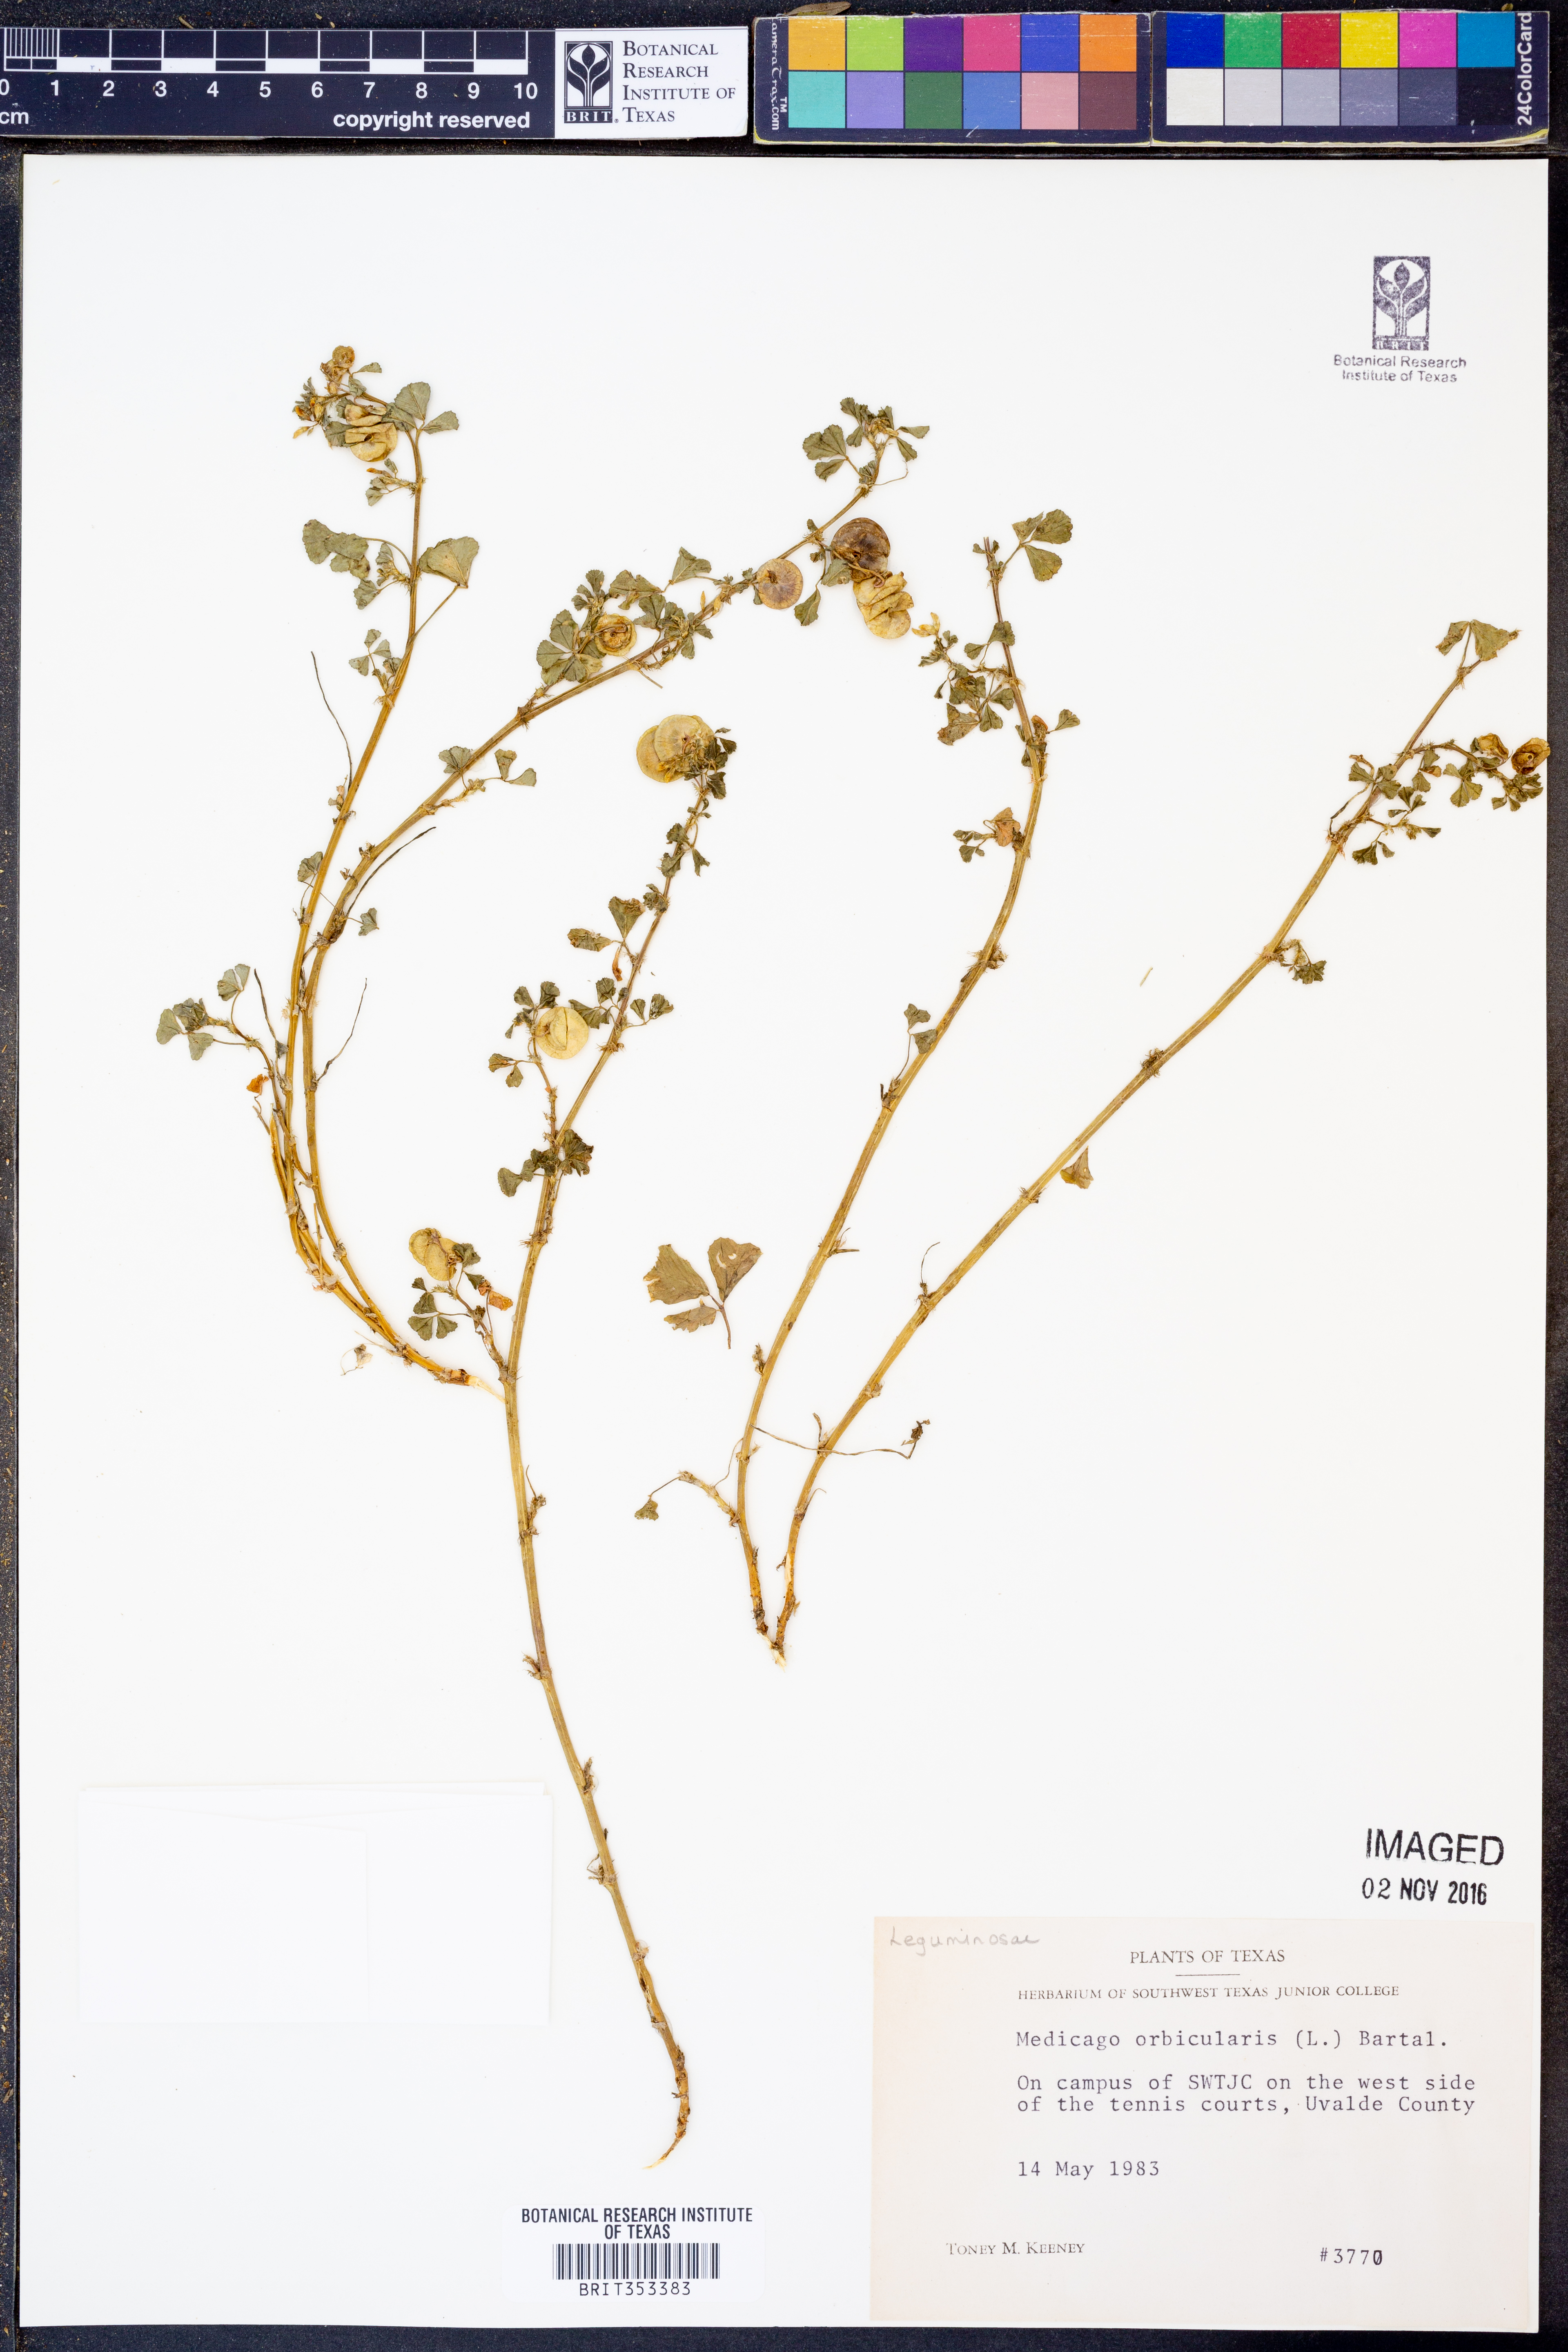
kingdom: Plantae
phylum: Tracheophyta
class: Magnoliopsida
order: Fabales
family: Fabaceae
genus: Medicago
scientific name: Medicago orbicularis
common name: Button medick
